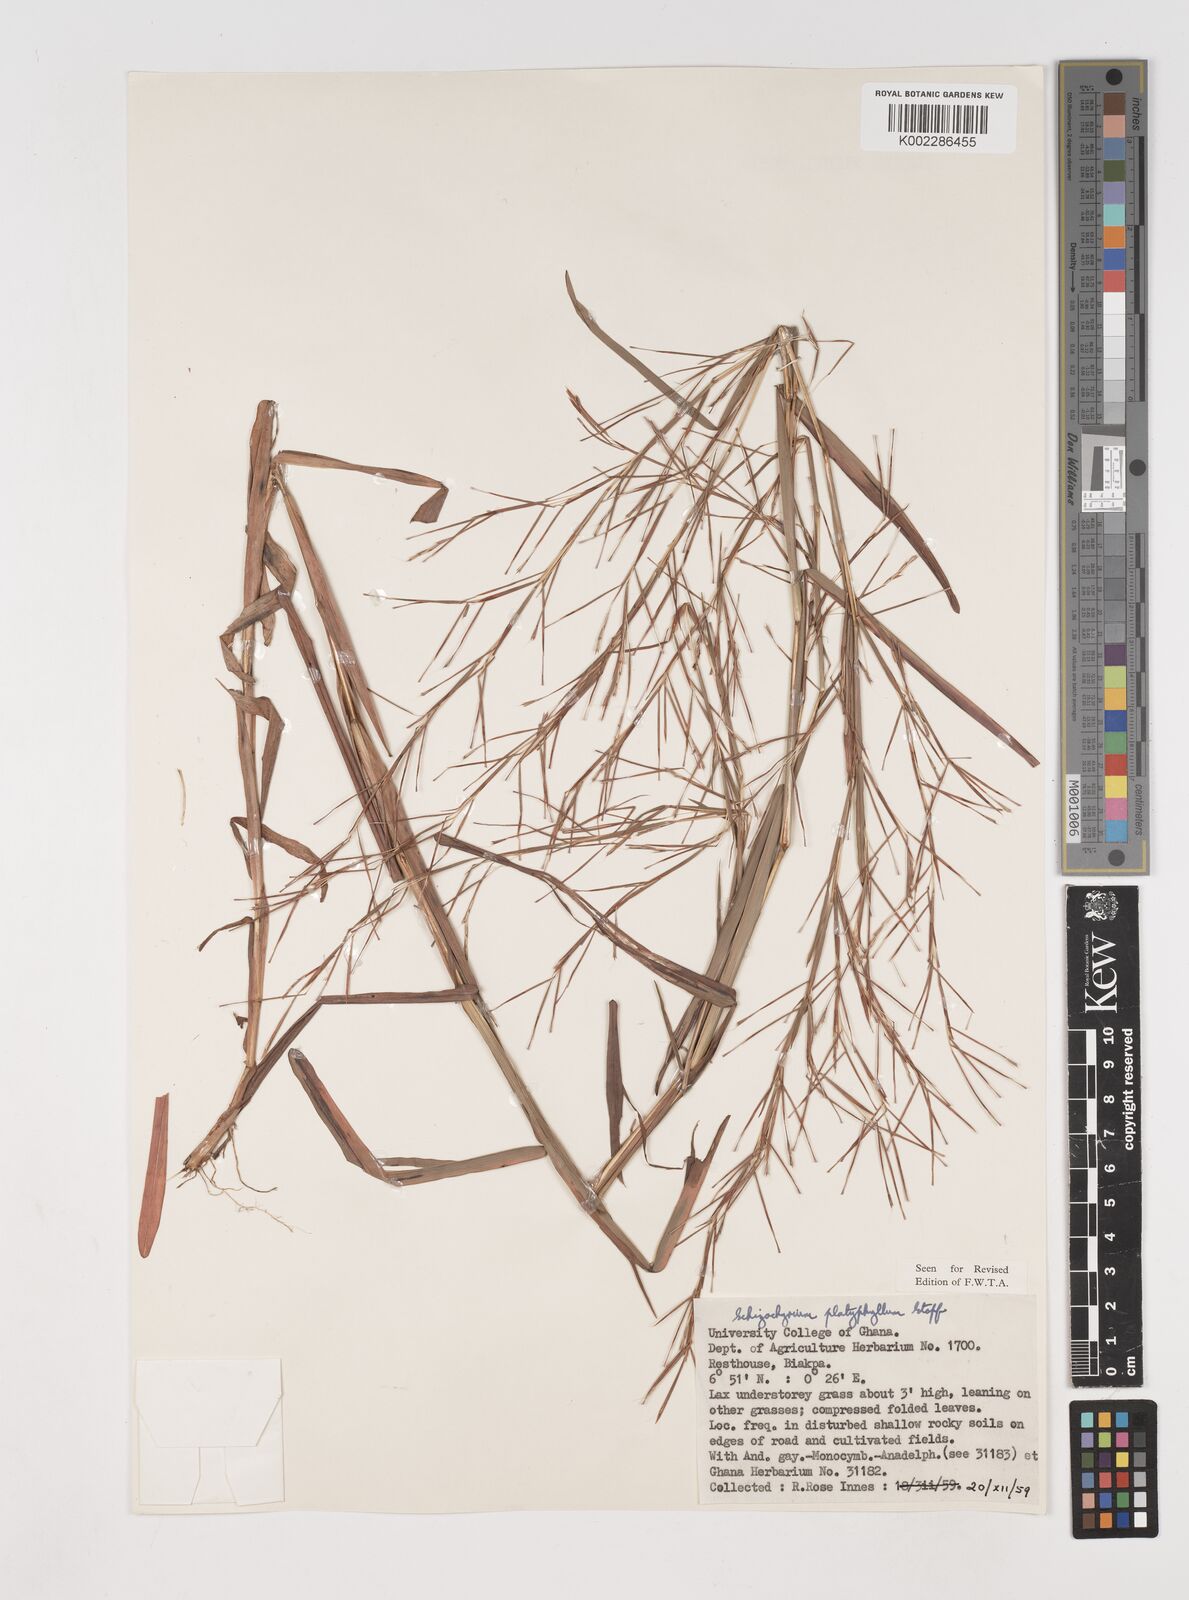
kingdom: Plantae
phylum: Tracheophyta
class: Liliopsida
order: Poales
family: Poaceae
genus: Schizachyrium
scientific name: Schizachyrium platyphyllum
